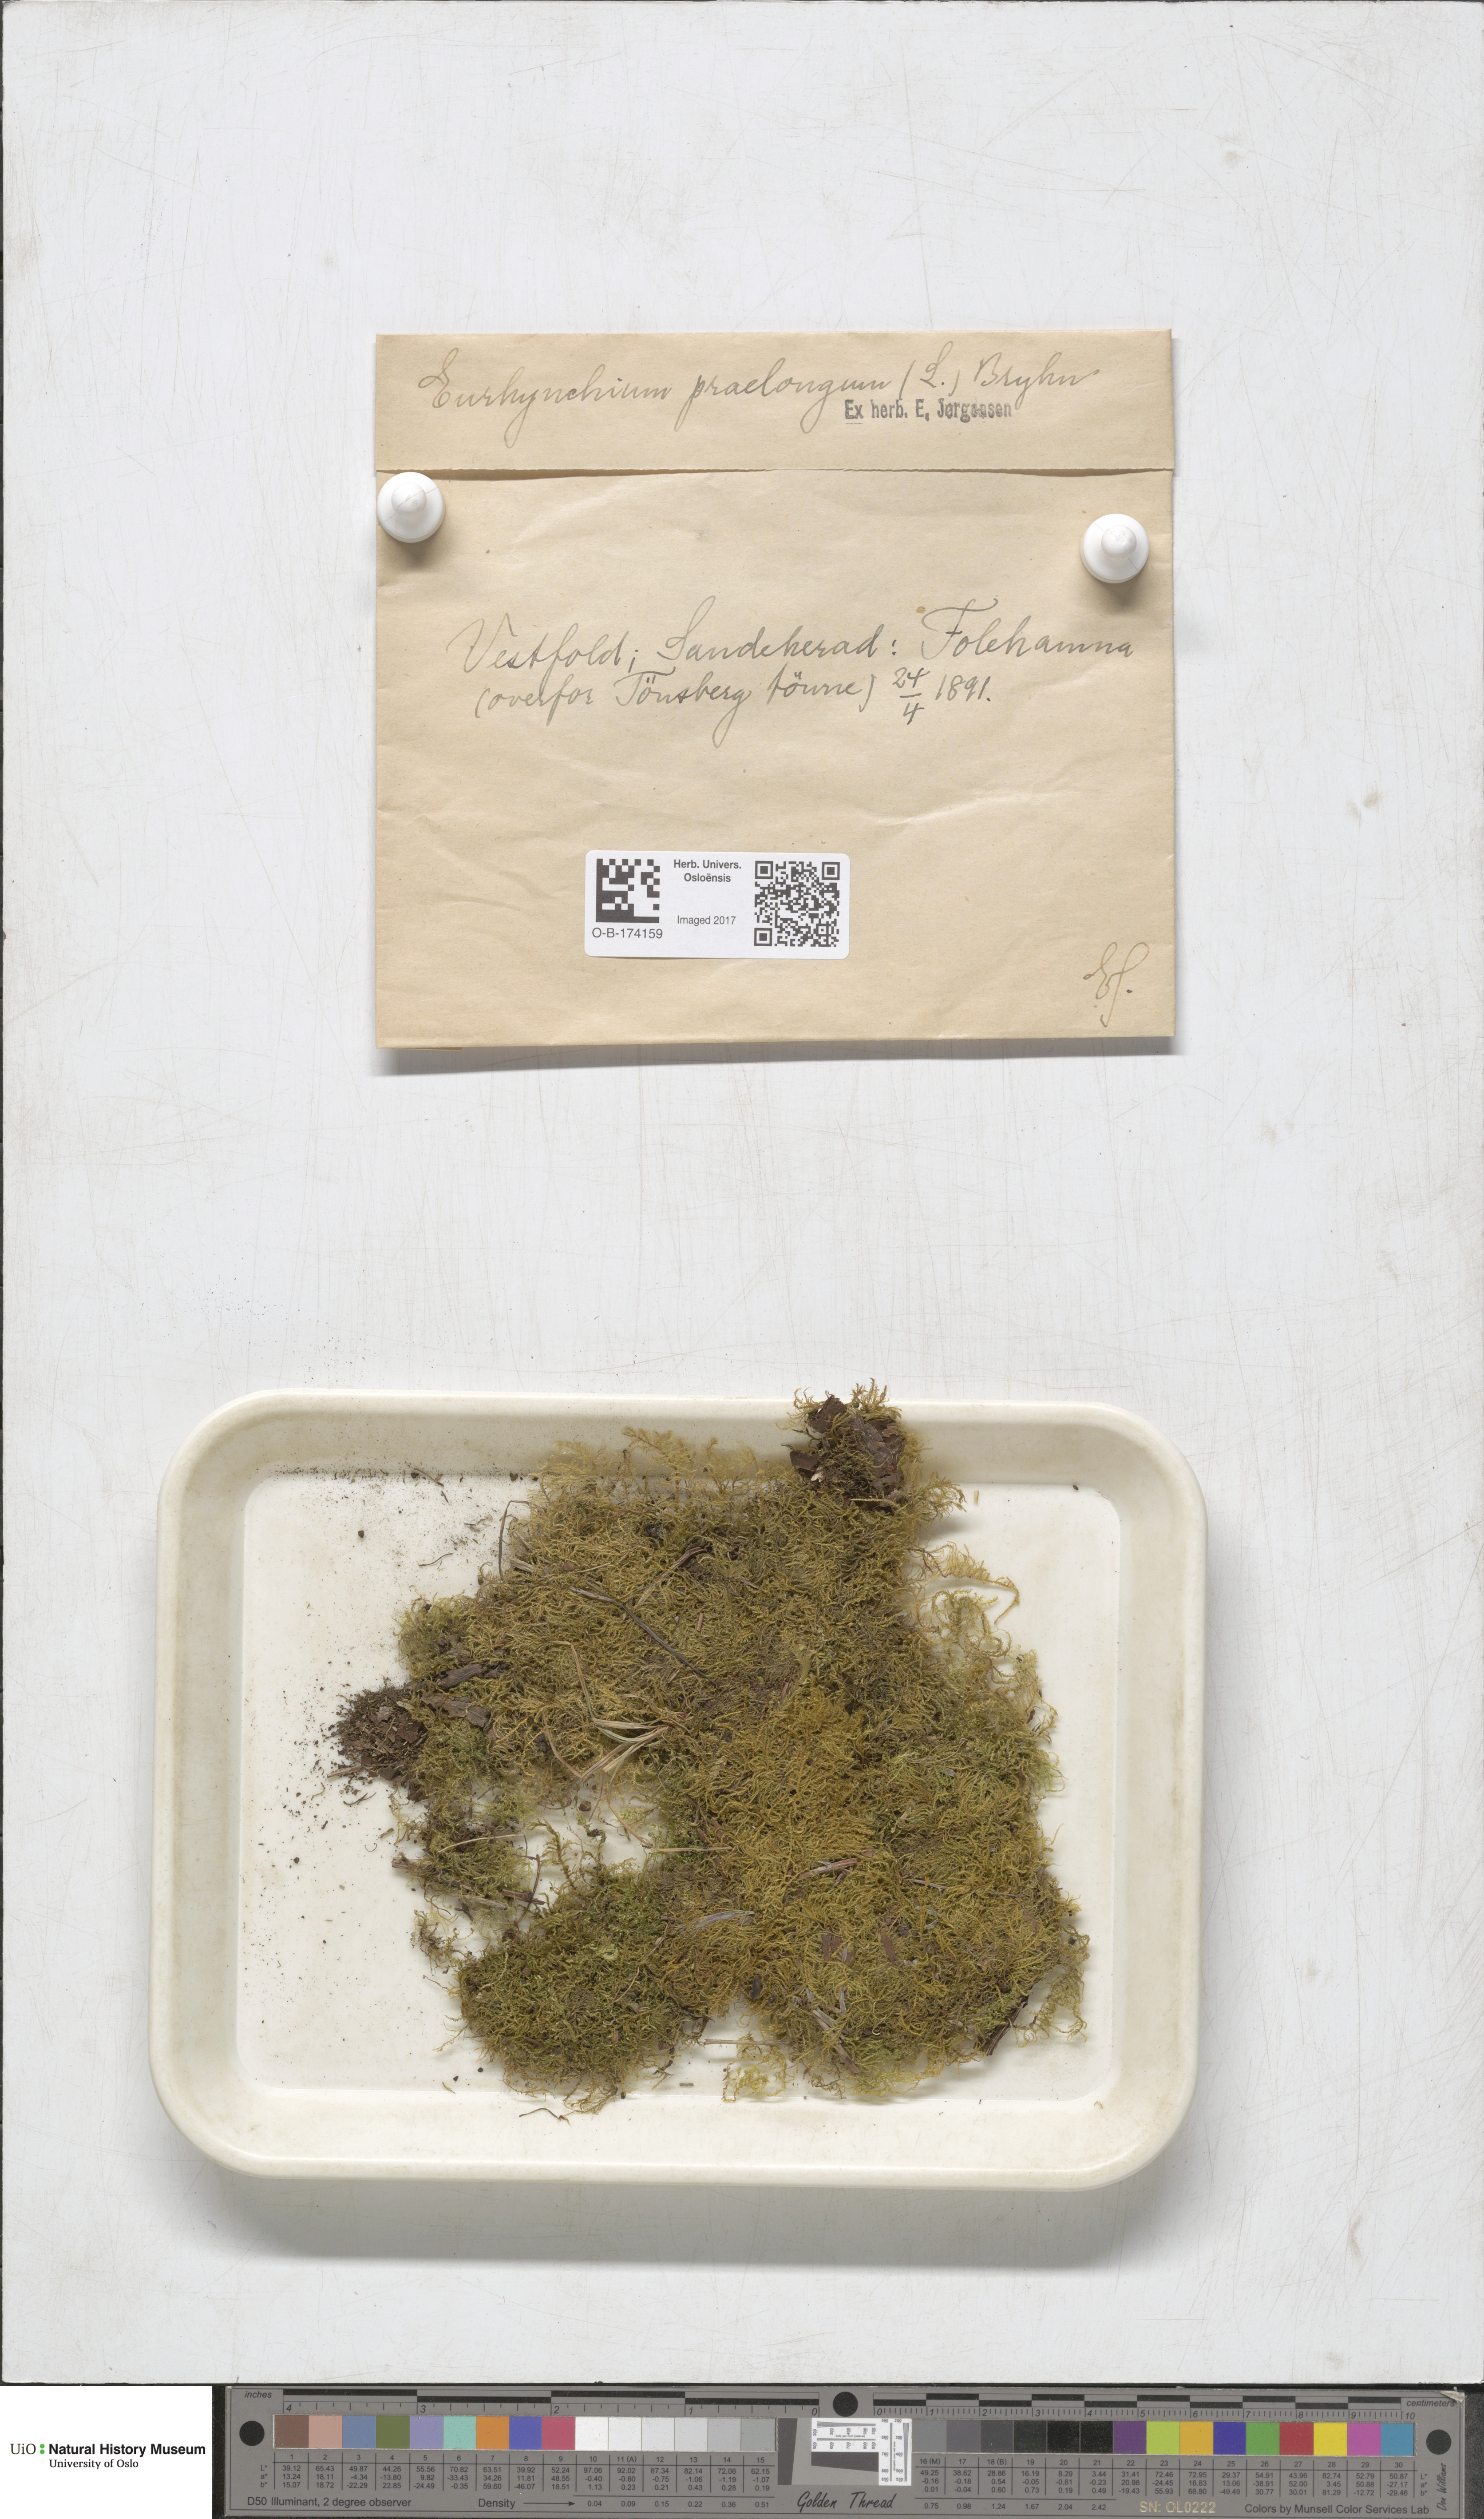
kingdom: Plantae
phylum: Bryophyta
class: Bryopsida
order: Hypnales
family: Brachytheciaceae
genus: Kindbergia
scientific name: Kindbergia praelonga
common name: Slender beaked moss
